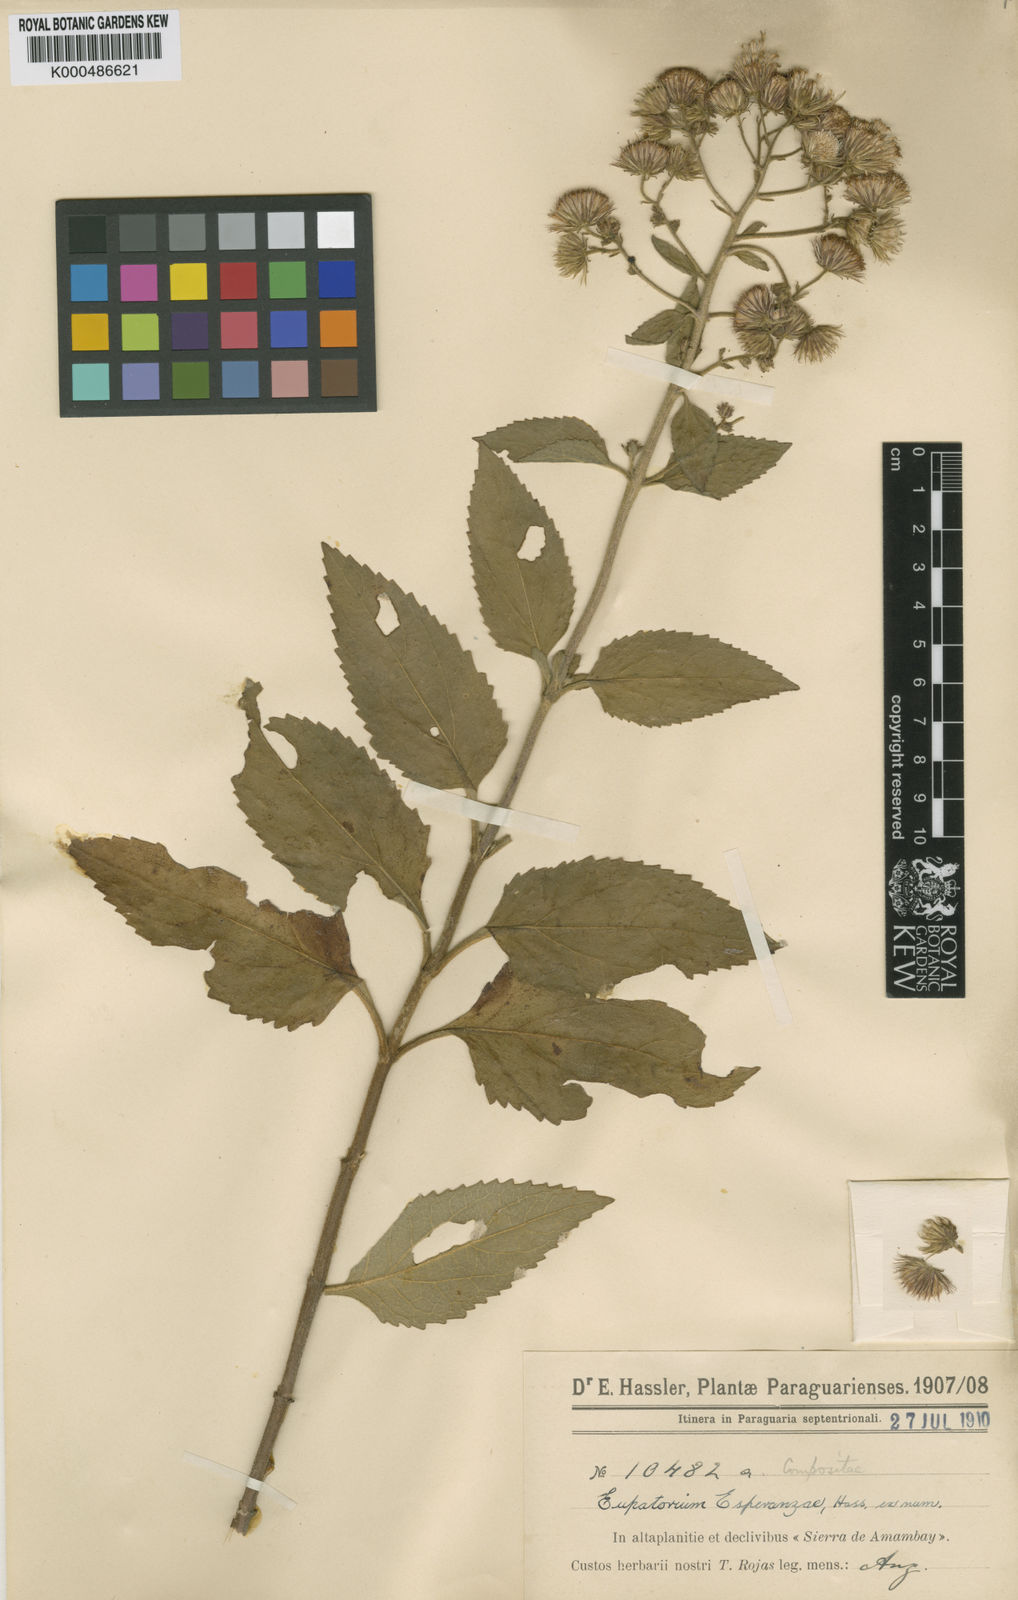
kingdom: Plantae
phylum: Tracheophyta
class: Magnoliopsida
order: Asterales
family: Asteraceae
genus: Ayapanopsis
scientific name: Ayapanopsis esperanzae
